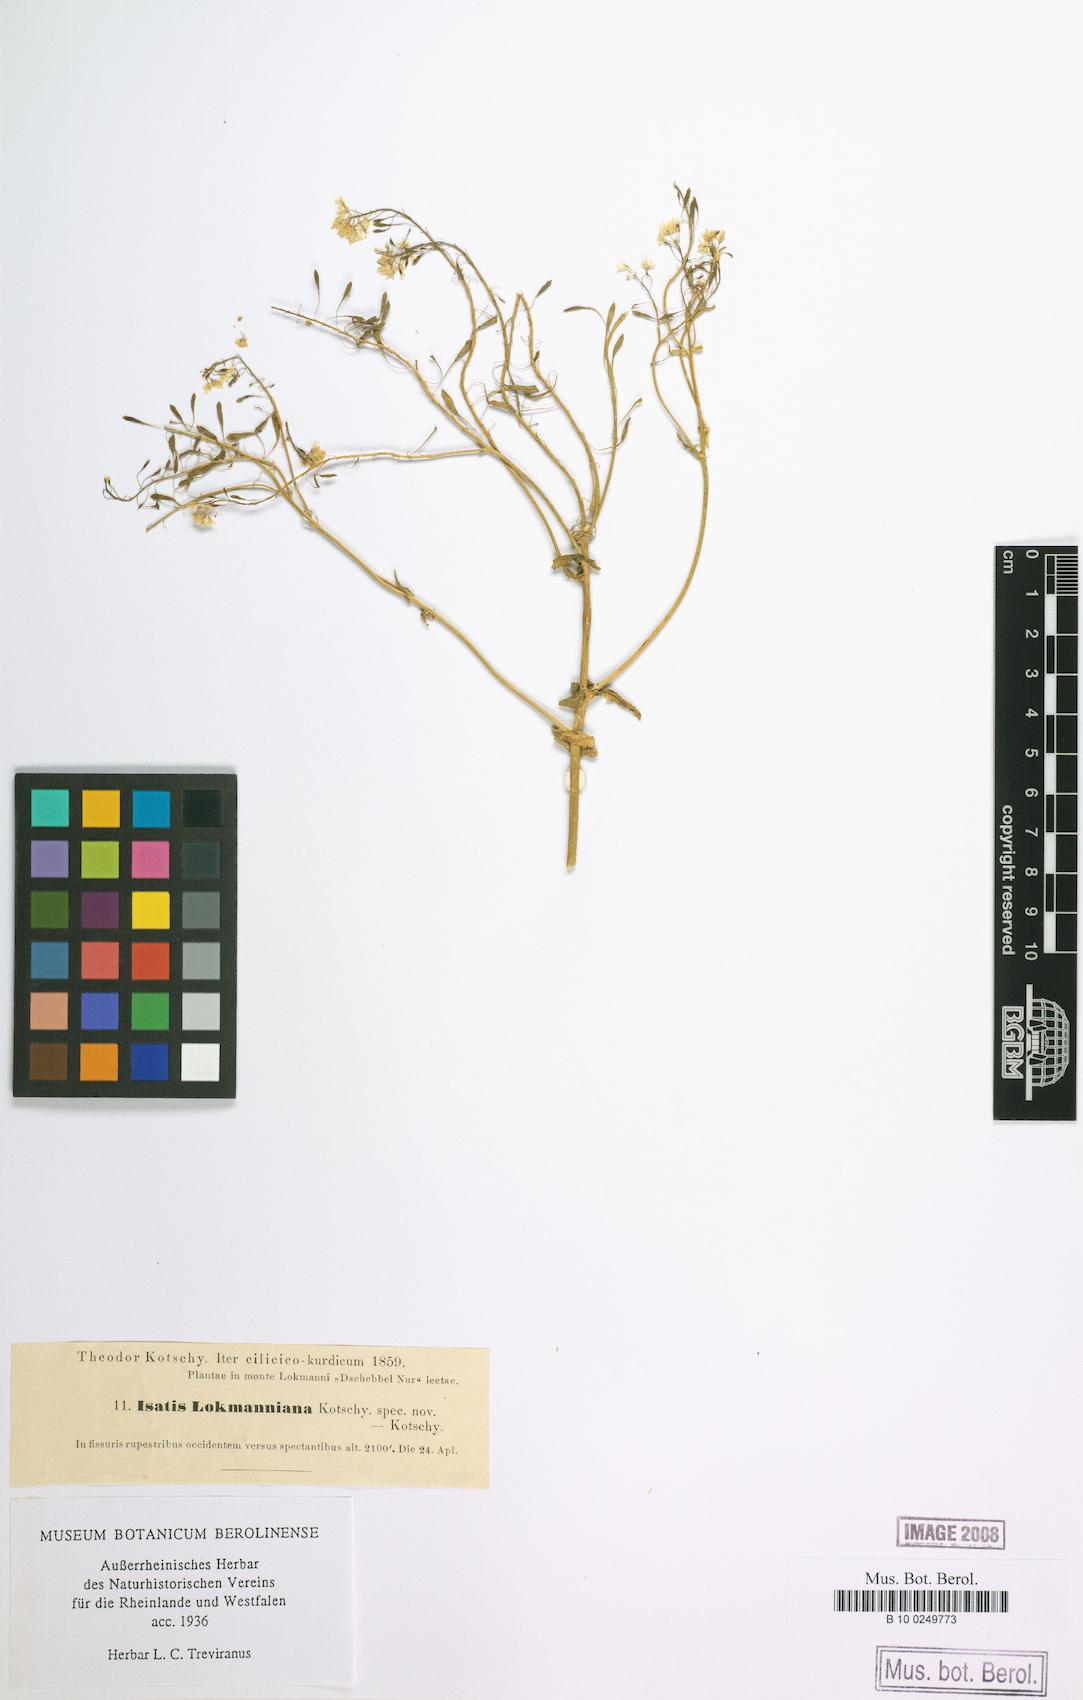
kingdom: Plantae
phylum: Tracheophyta
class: Magnoliopsida
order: Brassicales
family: Brassicaceae
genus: Isatis
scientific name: Isatis
